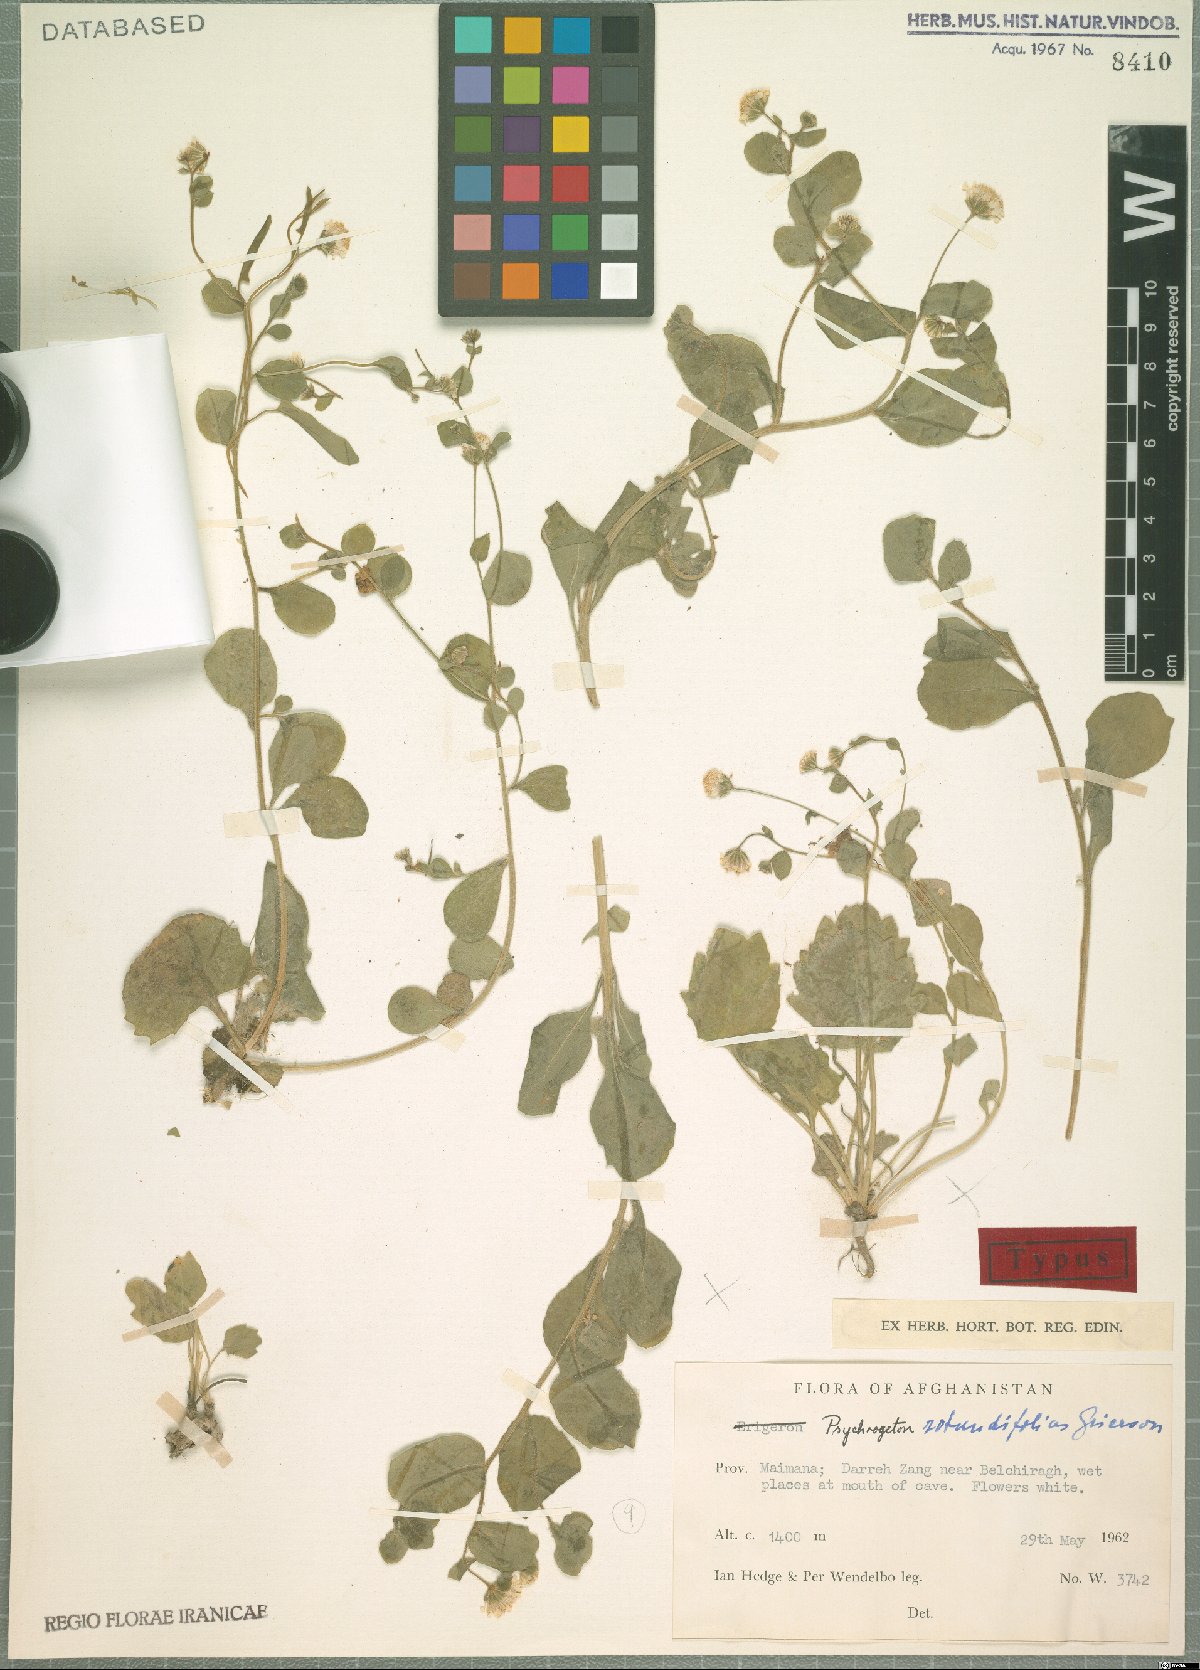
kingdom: Plantae
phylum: Tracheophyta
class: Magnoliopsida
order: Asterales
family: Asteraceae
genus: Psychrogeton
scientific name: Psychrogeton rotundifolius
